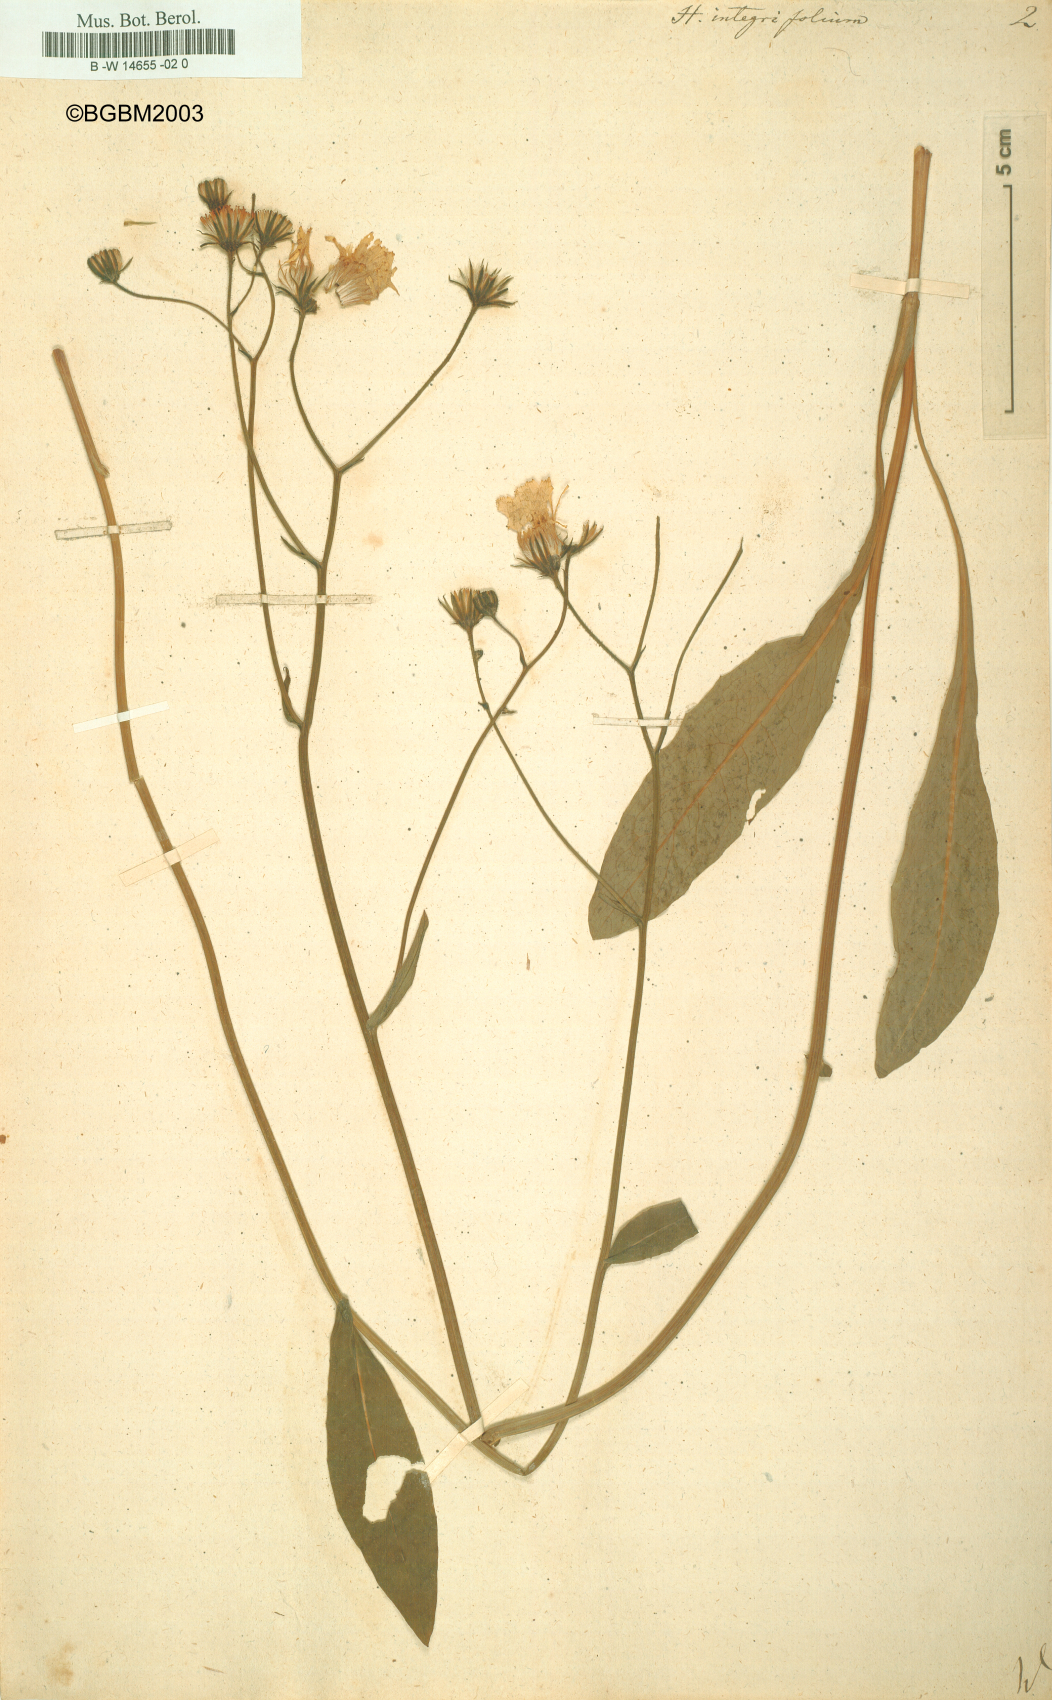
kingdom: Plantae
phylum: Tracheophyta
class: Magnoliopsida
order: Asterales
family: Asteraceae
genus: Hieracium
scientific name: Hieracium integrifolium
